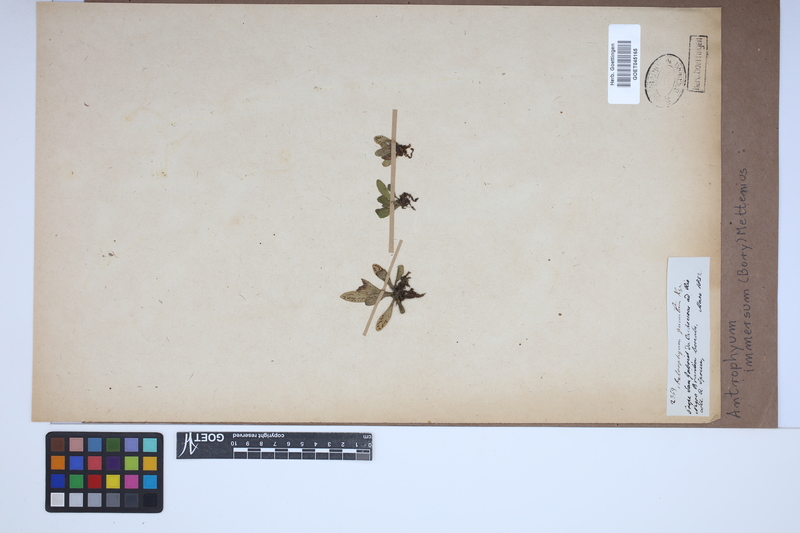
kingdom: Plantae
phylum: Tracheophyta
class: Polypodiopsida
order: Polypodiales
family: Pteridaceae
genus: Antrophyum
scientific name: Antrophyum parvulum
